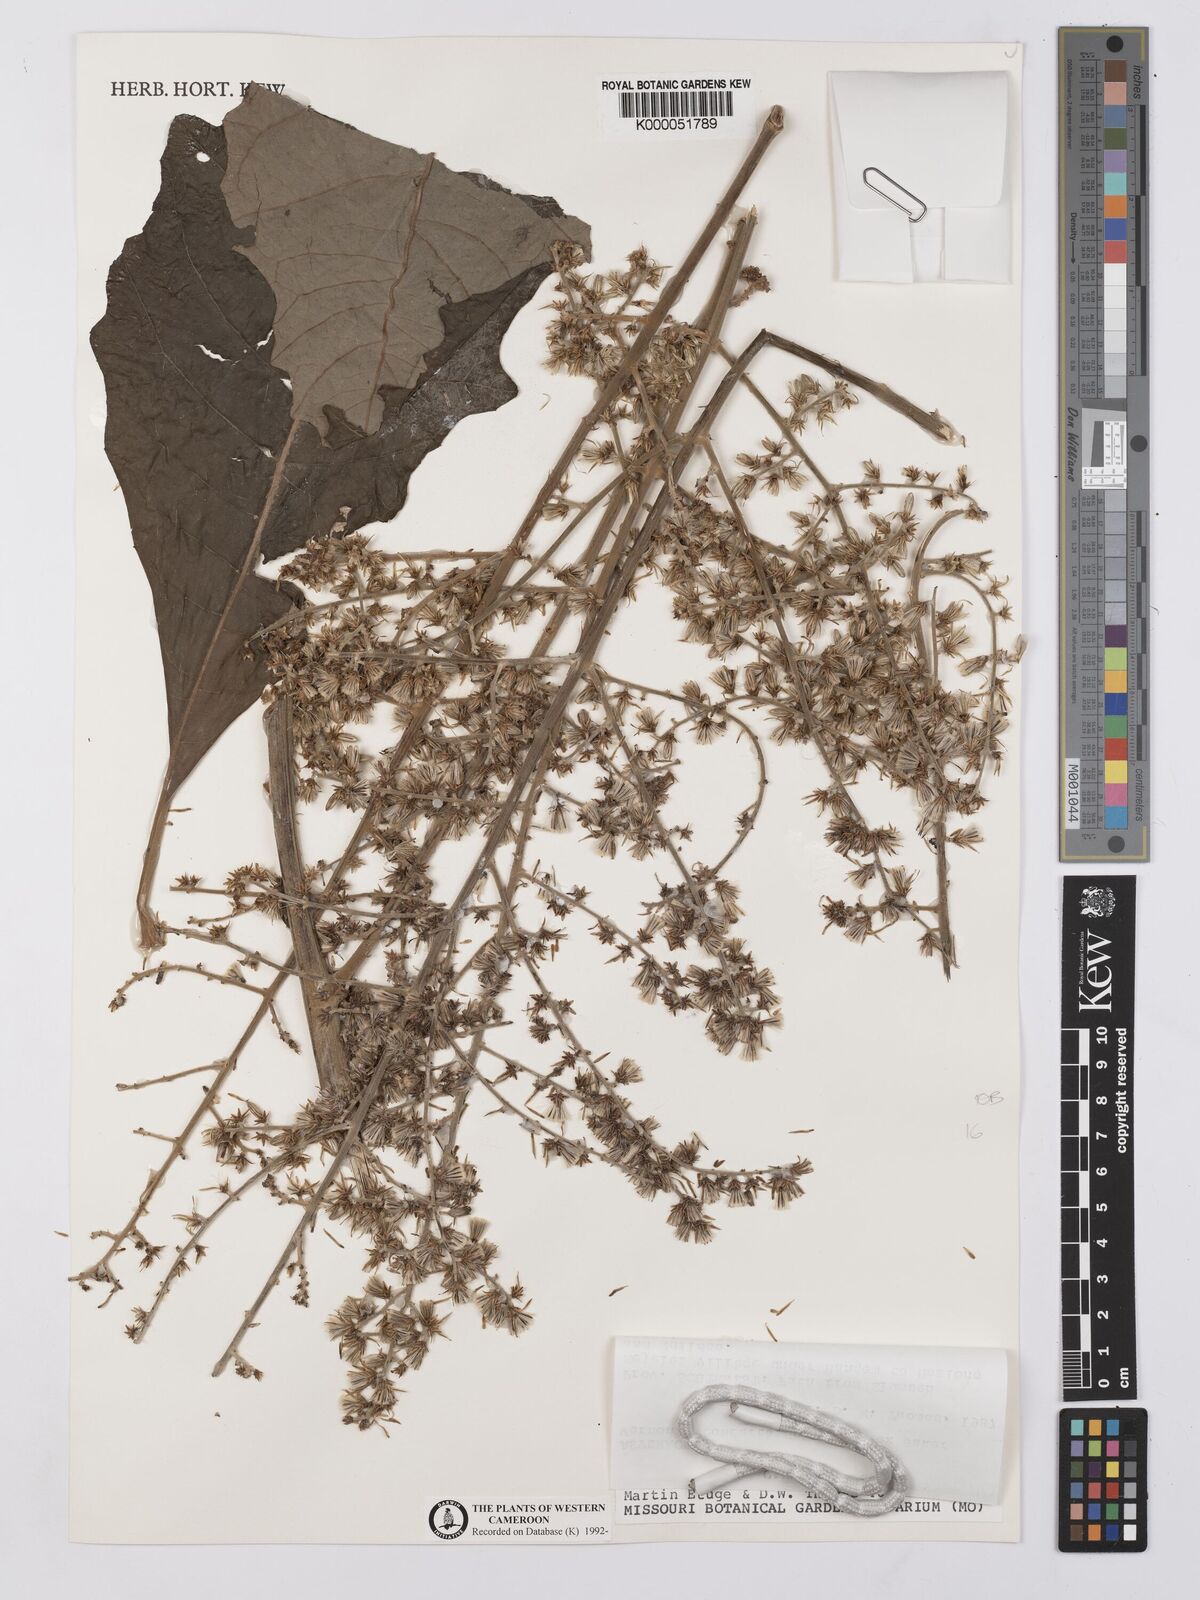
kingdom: Plantae
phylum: Tracheophyta
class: Magnoliopsida
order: Asterales
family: Asteraceae
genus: Brenandendron
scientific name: Brenandendron donianum
